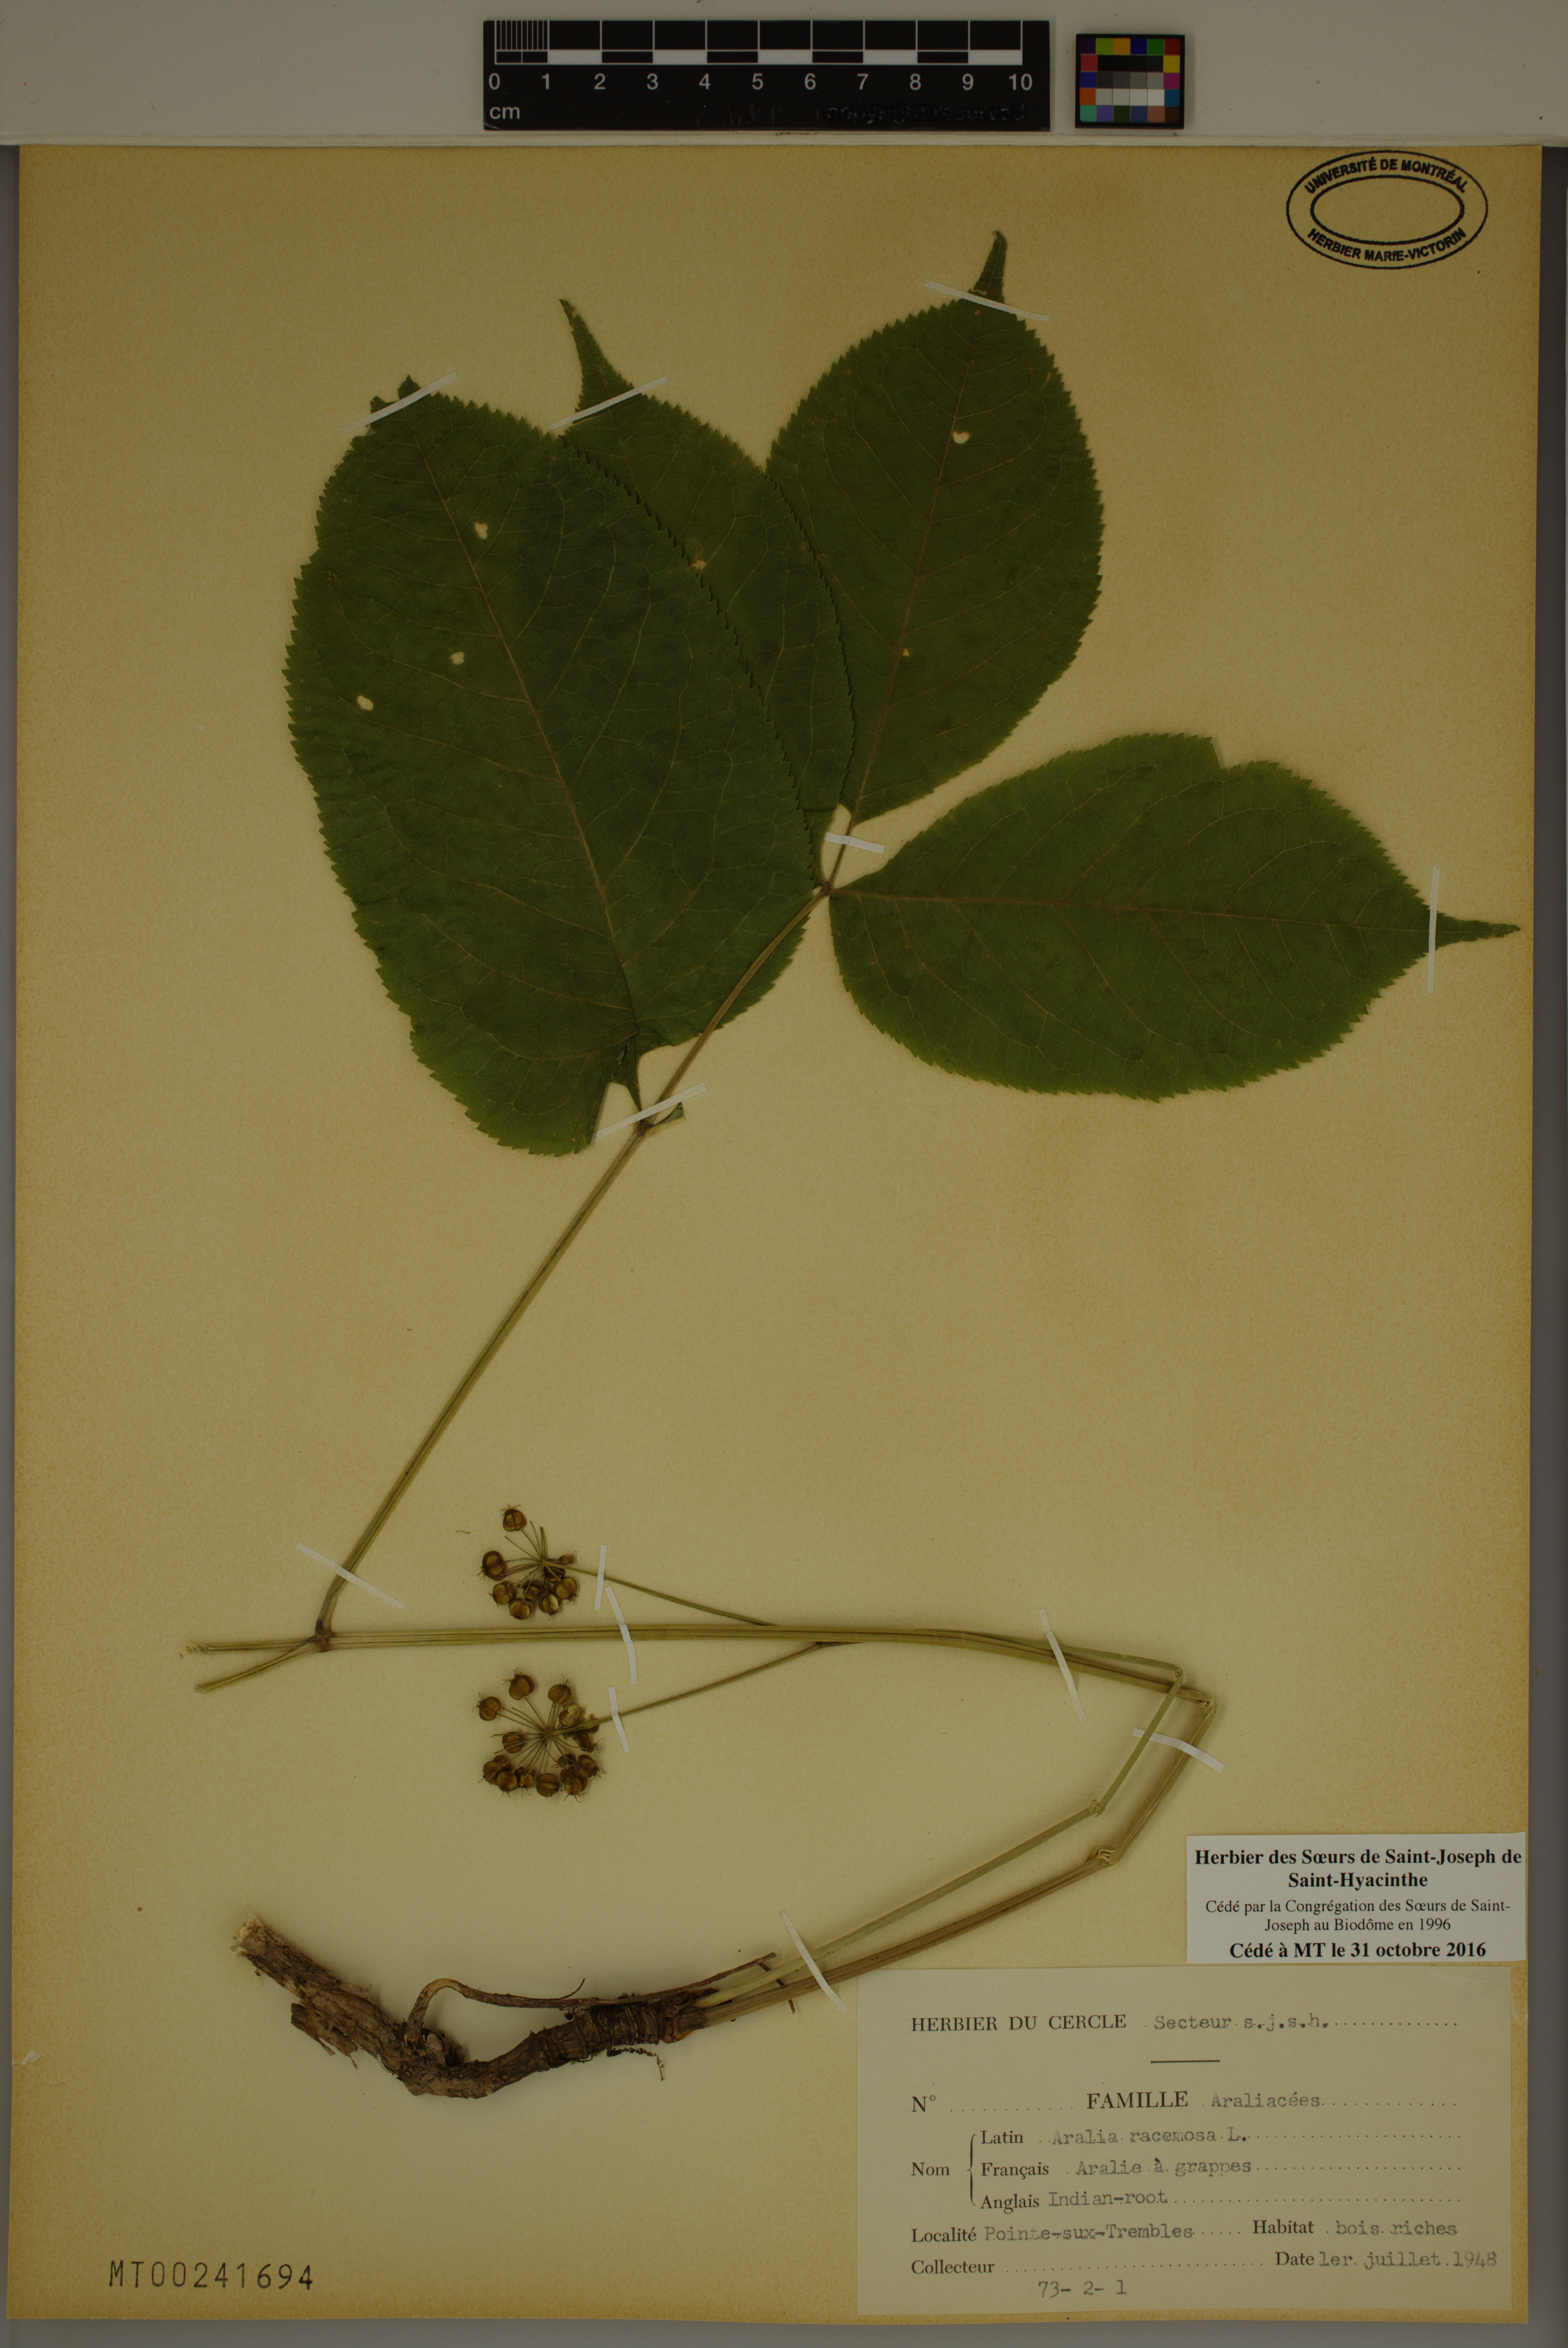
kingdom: Plantae
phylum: Tracheophyta
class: Magnoliopsida
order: Apiales
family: Araliaceae
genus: Aralia
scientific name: Aralia racemosa
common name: American-spikenard
